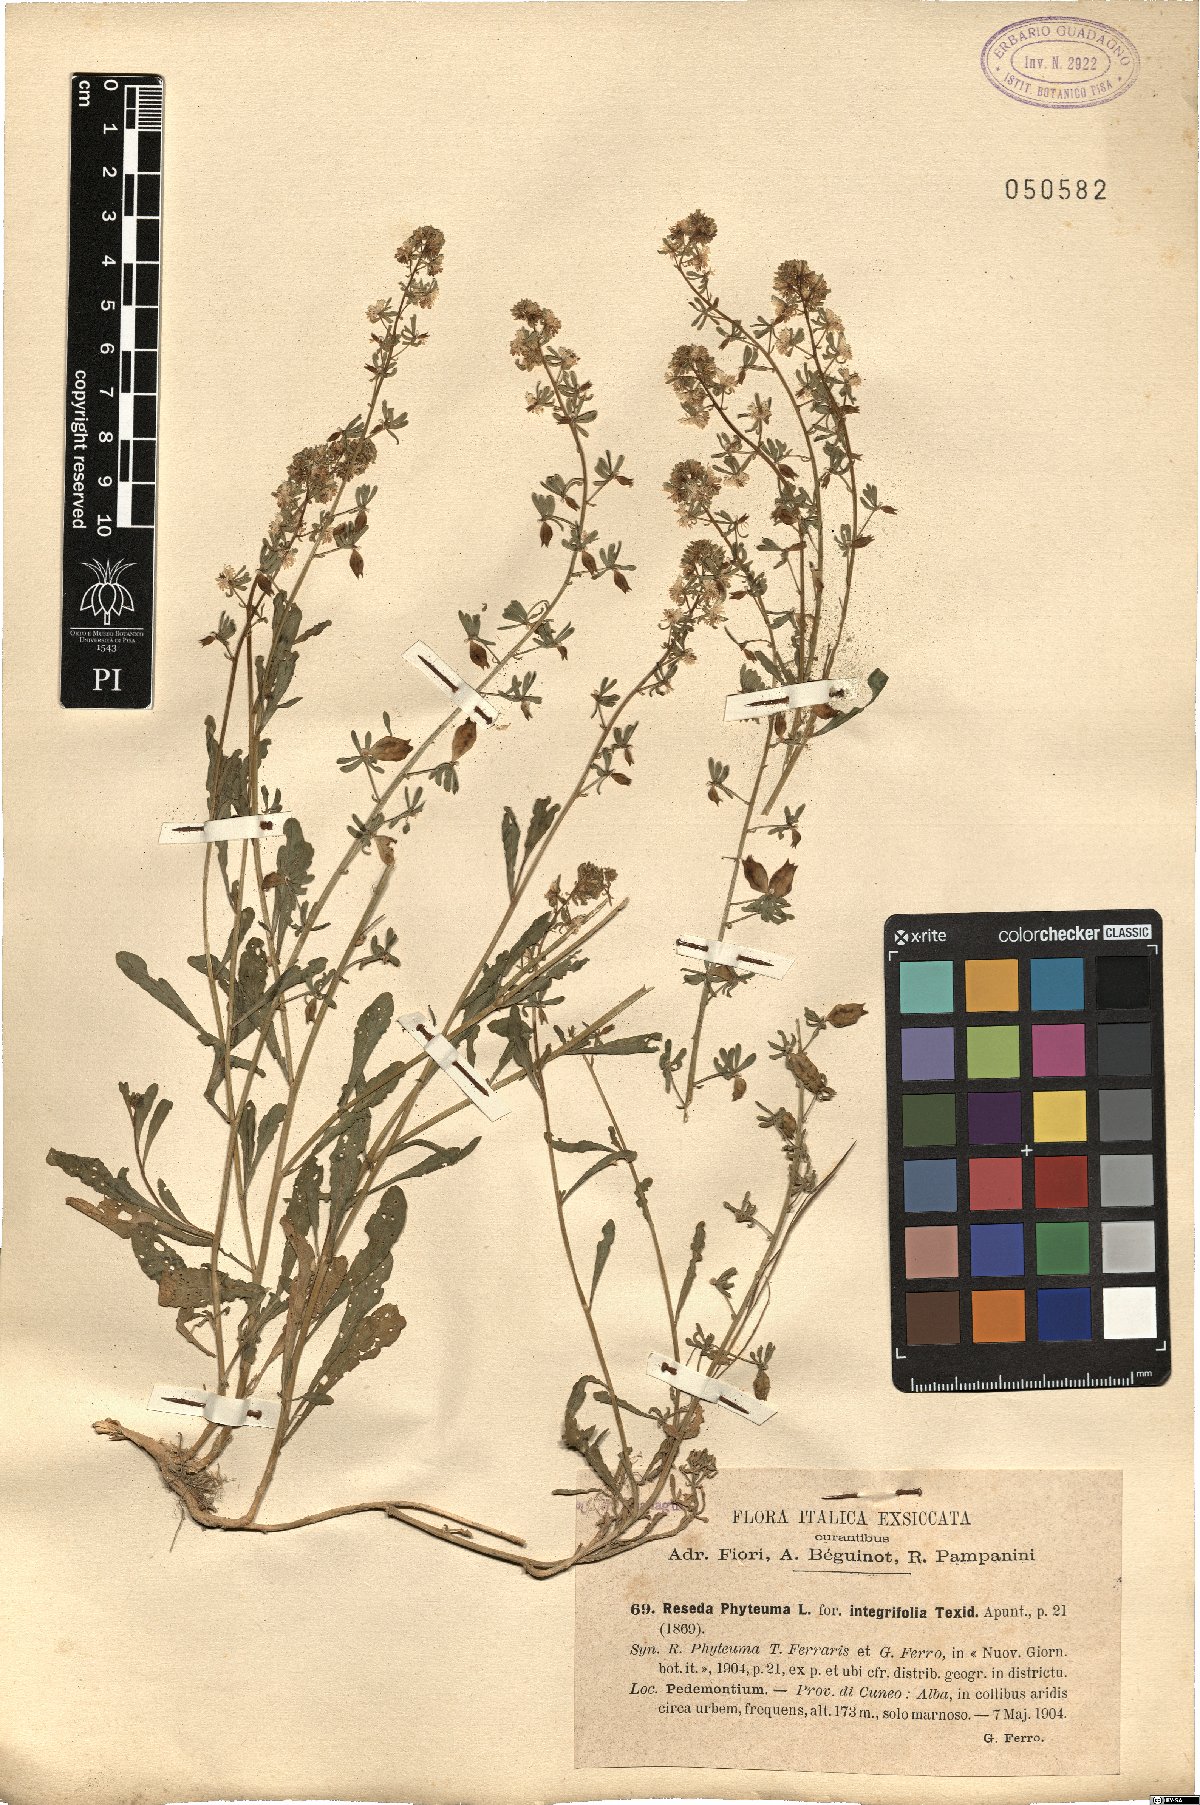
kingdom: Plantae
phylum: Tracheophyta
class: Magnoliopsida
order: Brassicales
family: Resedaceae
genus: Reseda
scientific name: Reseda phyteuma
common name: Corn mignonette
